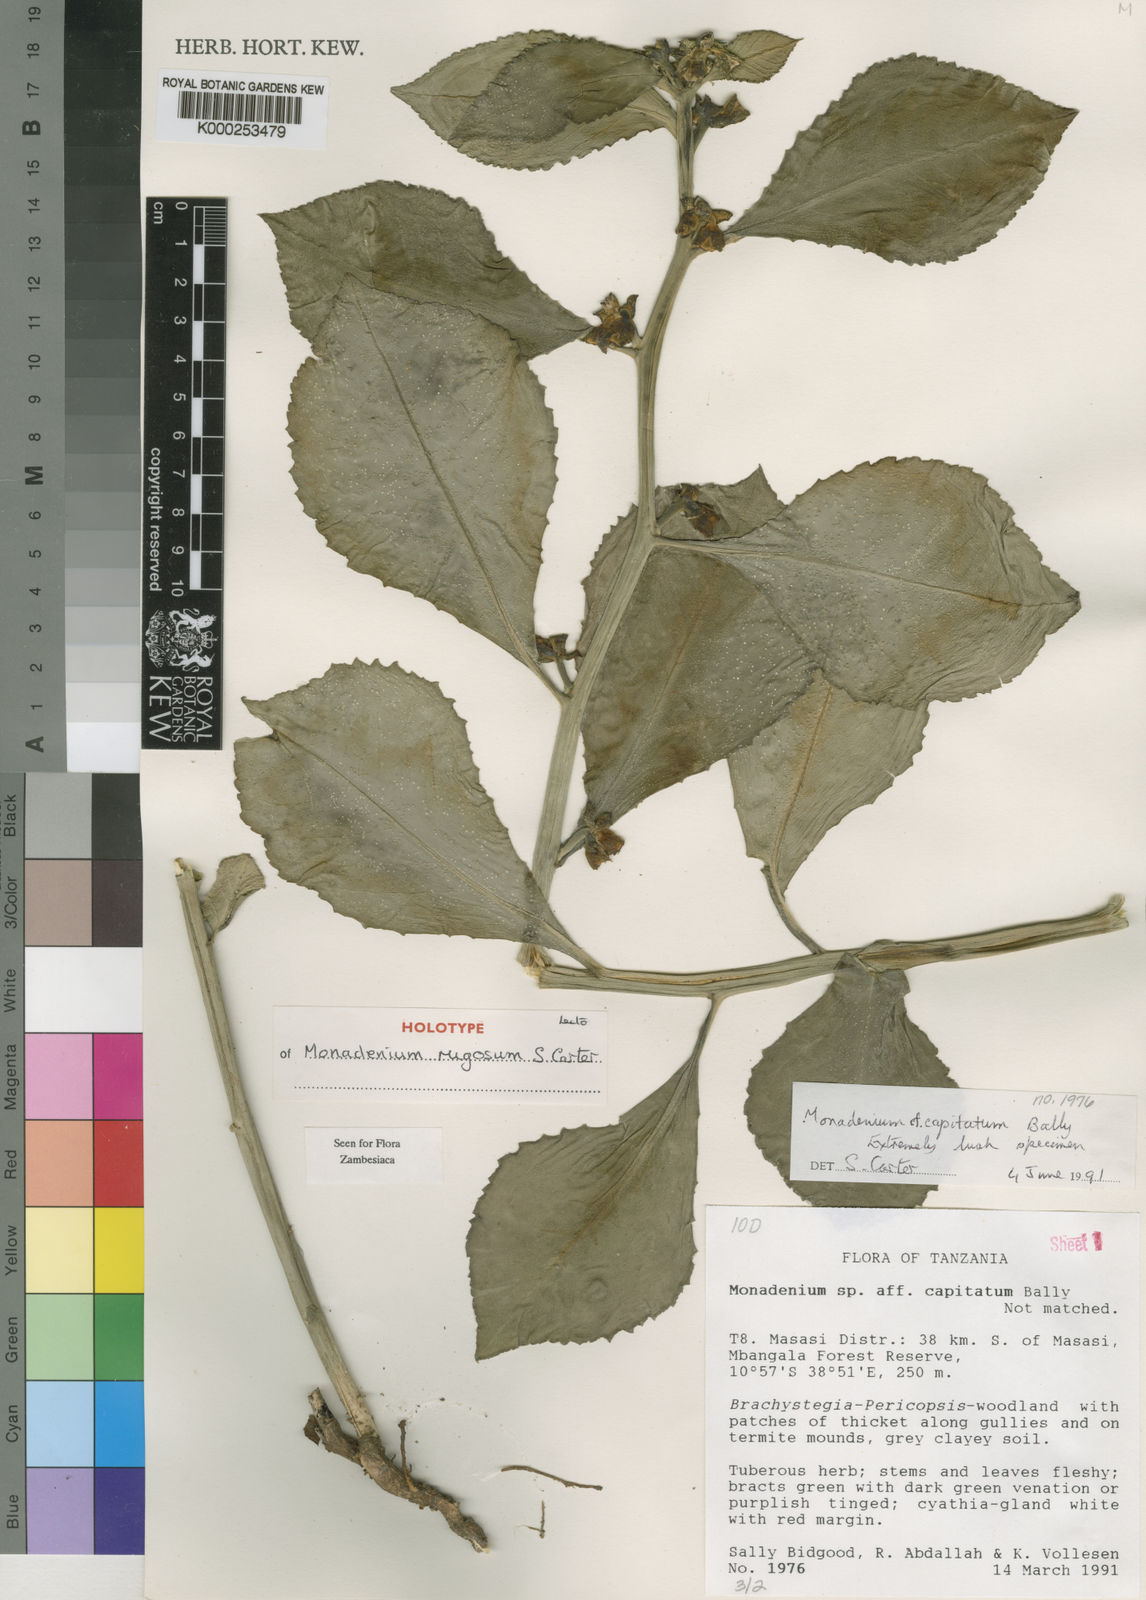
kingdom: Plantae
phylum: Tracheophyta
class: Magnoliopsida
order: Malpighiales
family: Euphorbiaceae
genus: Euphorbia
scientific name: Euphorbia neorugosa
